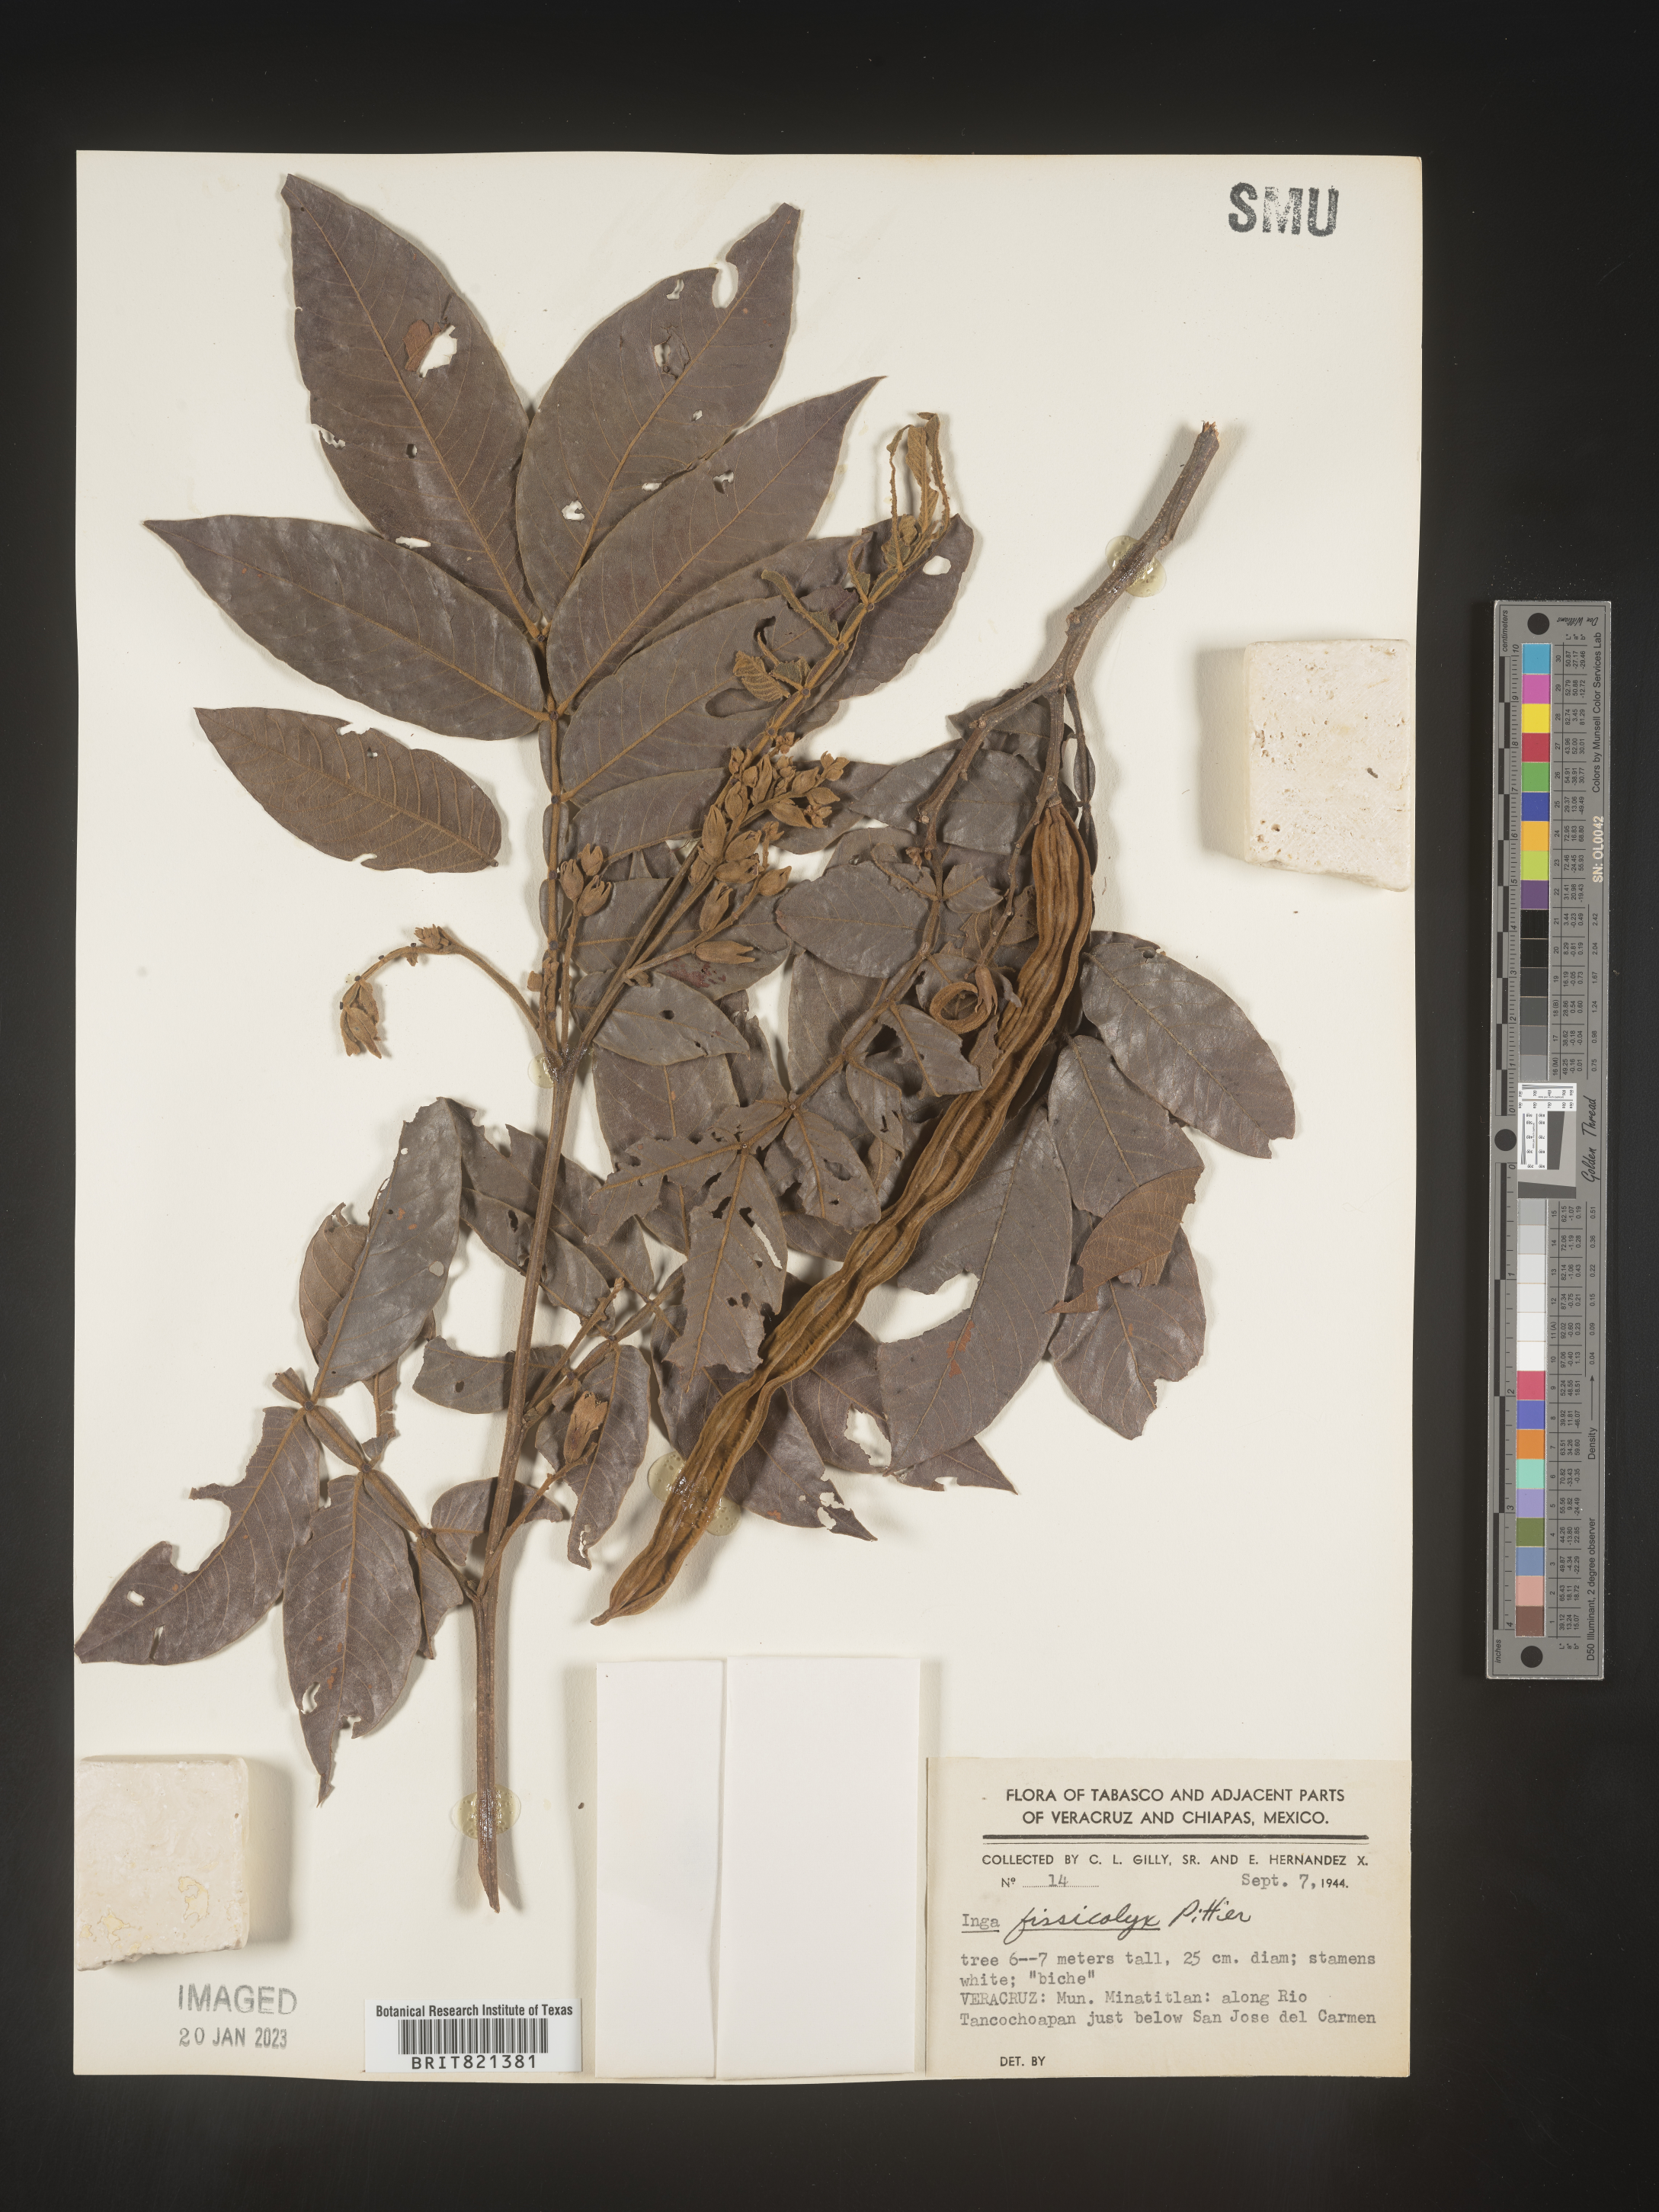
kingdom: Plantae
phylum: Tracheophyta
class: Magnoliopsida
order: Fabales
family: Fabaceae
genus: Inga
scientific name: Inga
